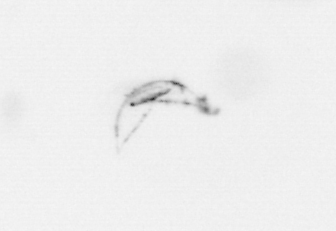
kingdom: Chromista
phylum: Ochrophyta
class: Bacillariophyceae
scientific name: Bacillariophyceae
